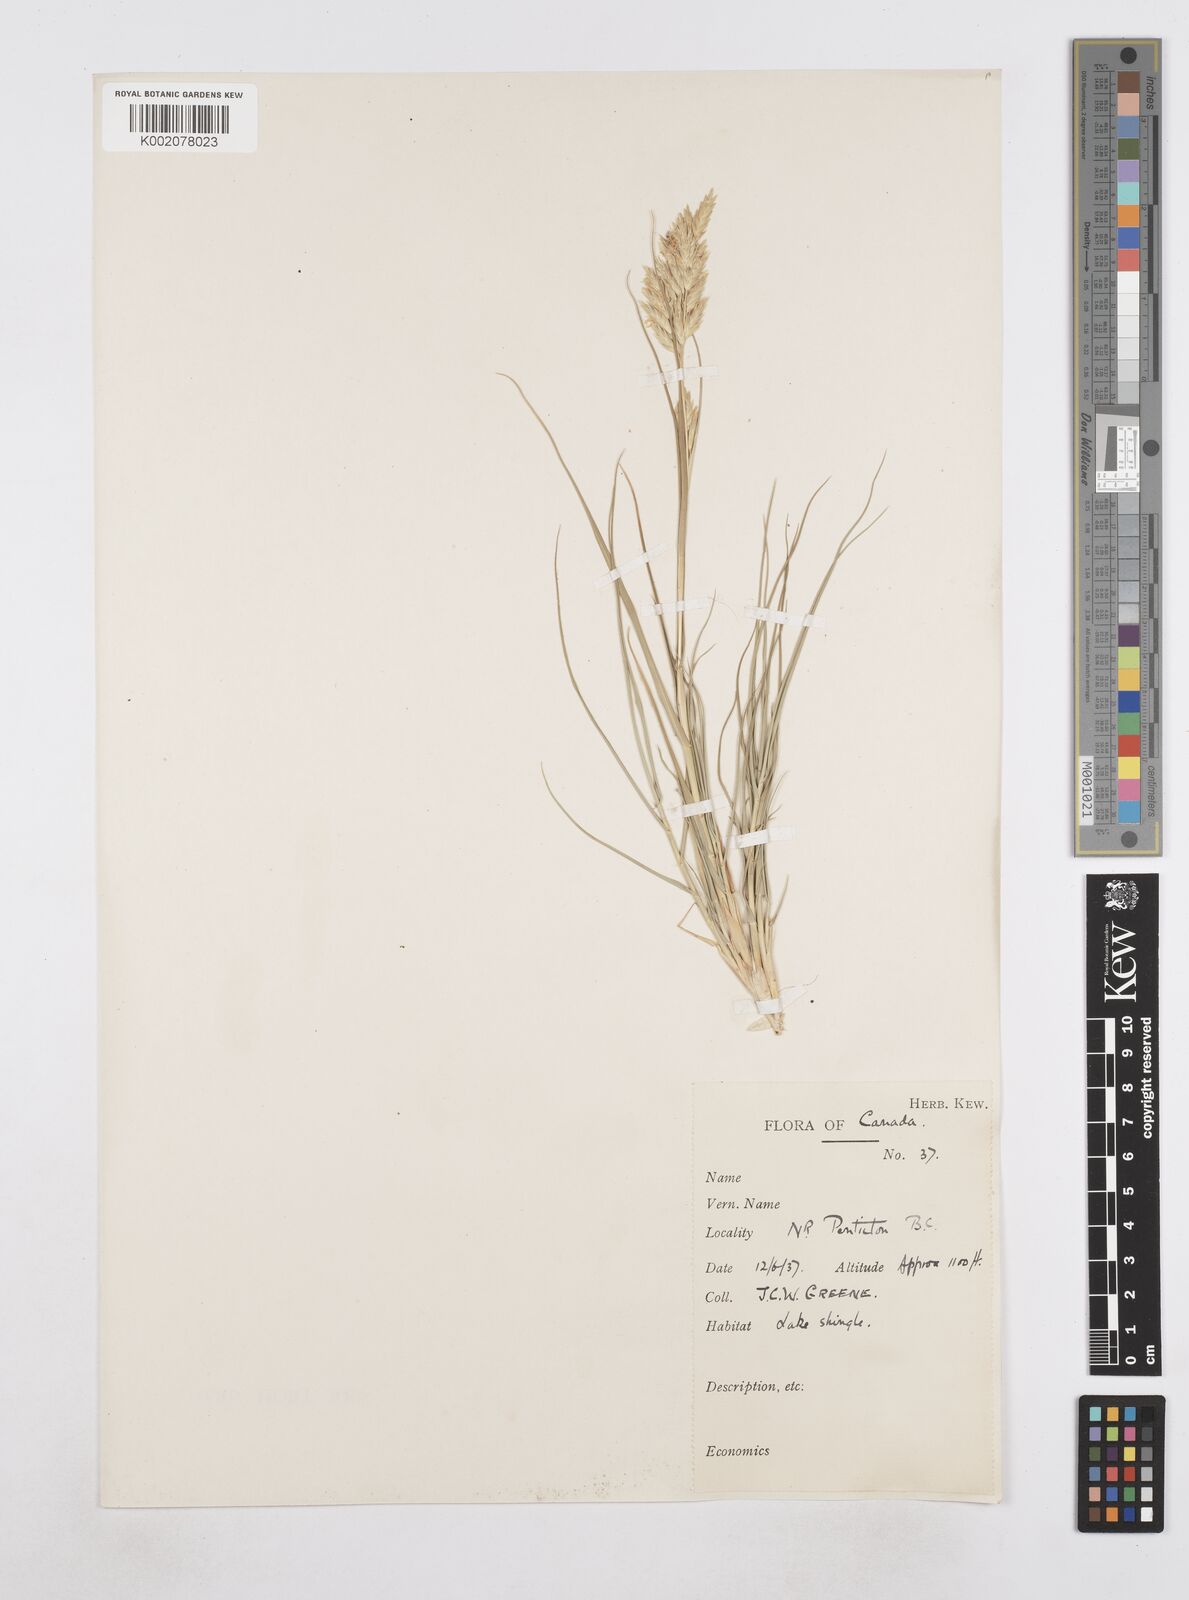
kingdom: Plantae
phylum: Tracheophyta
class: Liliopsida
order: Poales
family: Poaceae
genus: Poa
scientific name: Poa
